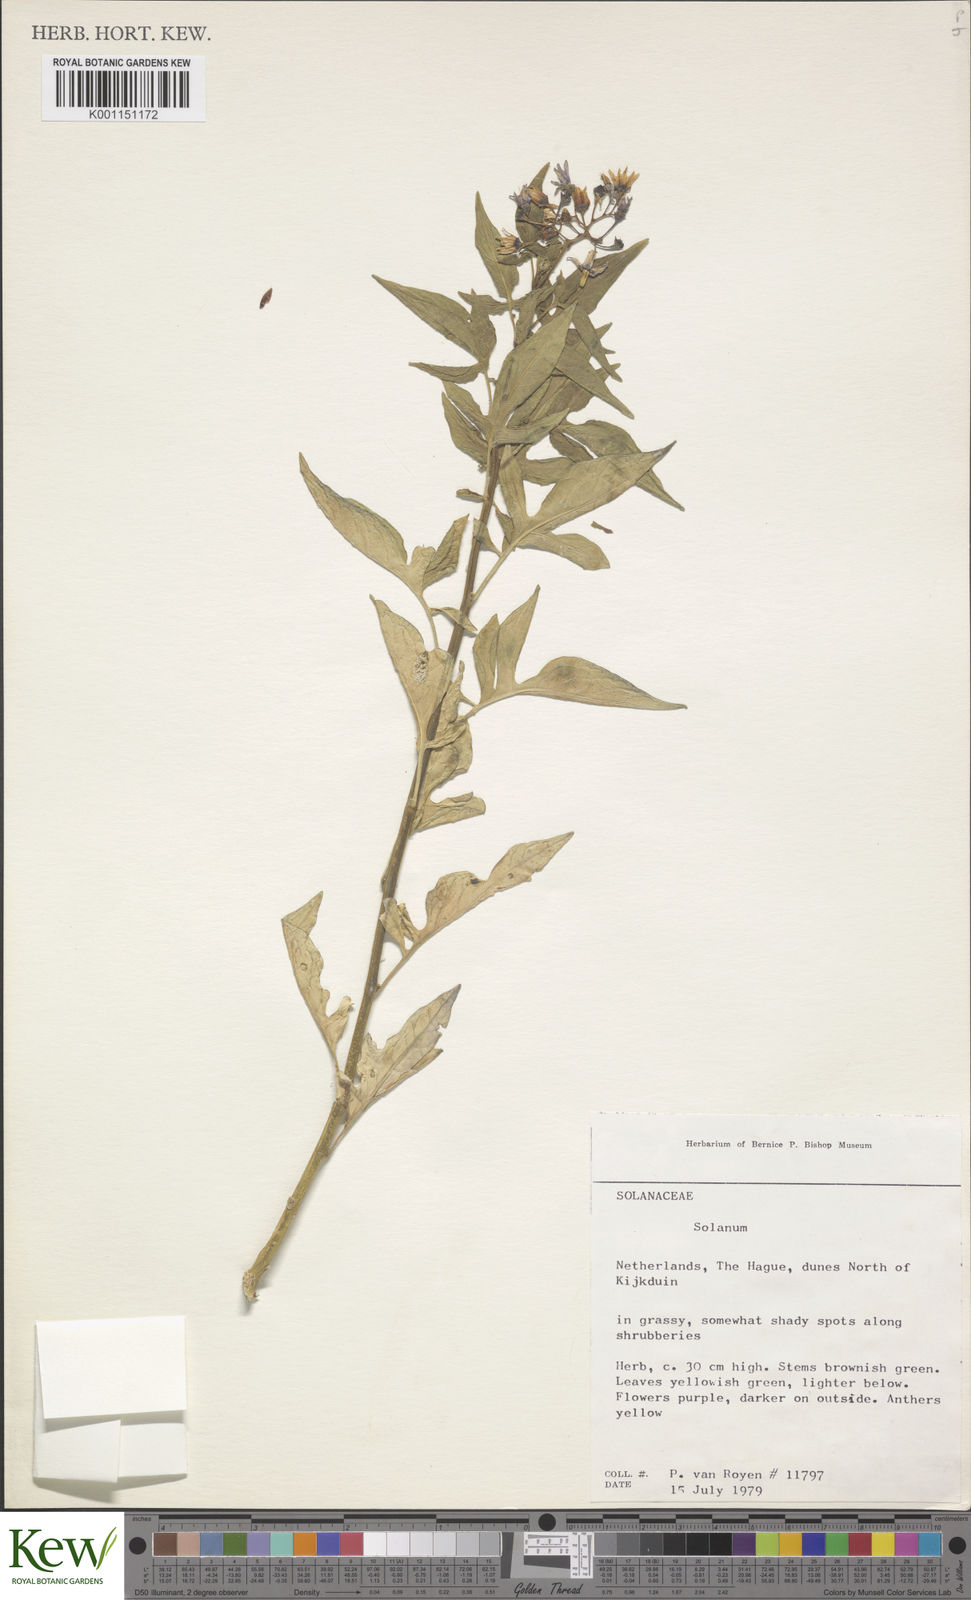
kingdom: Plantae
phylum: Tracheophyta
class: Magnoliopsida
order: Solanales
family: Solanaceae
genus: Solanum
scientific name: Solanum dulcamara
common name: Climbing nightshade
